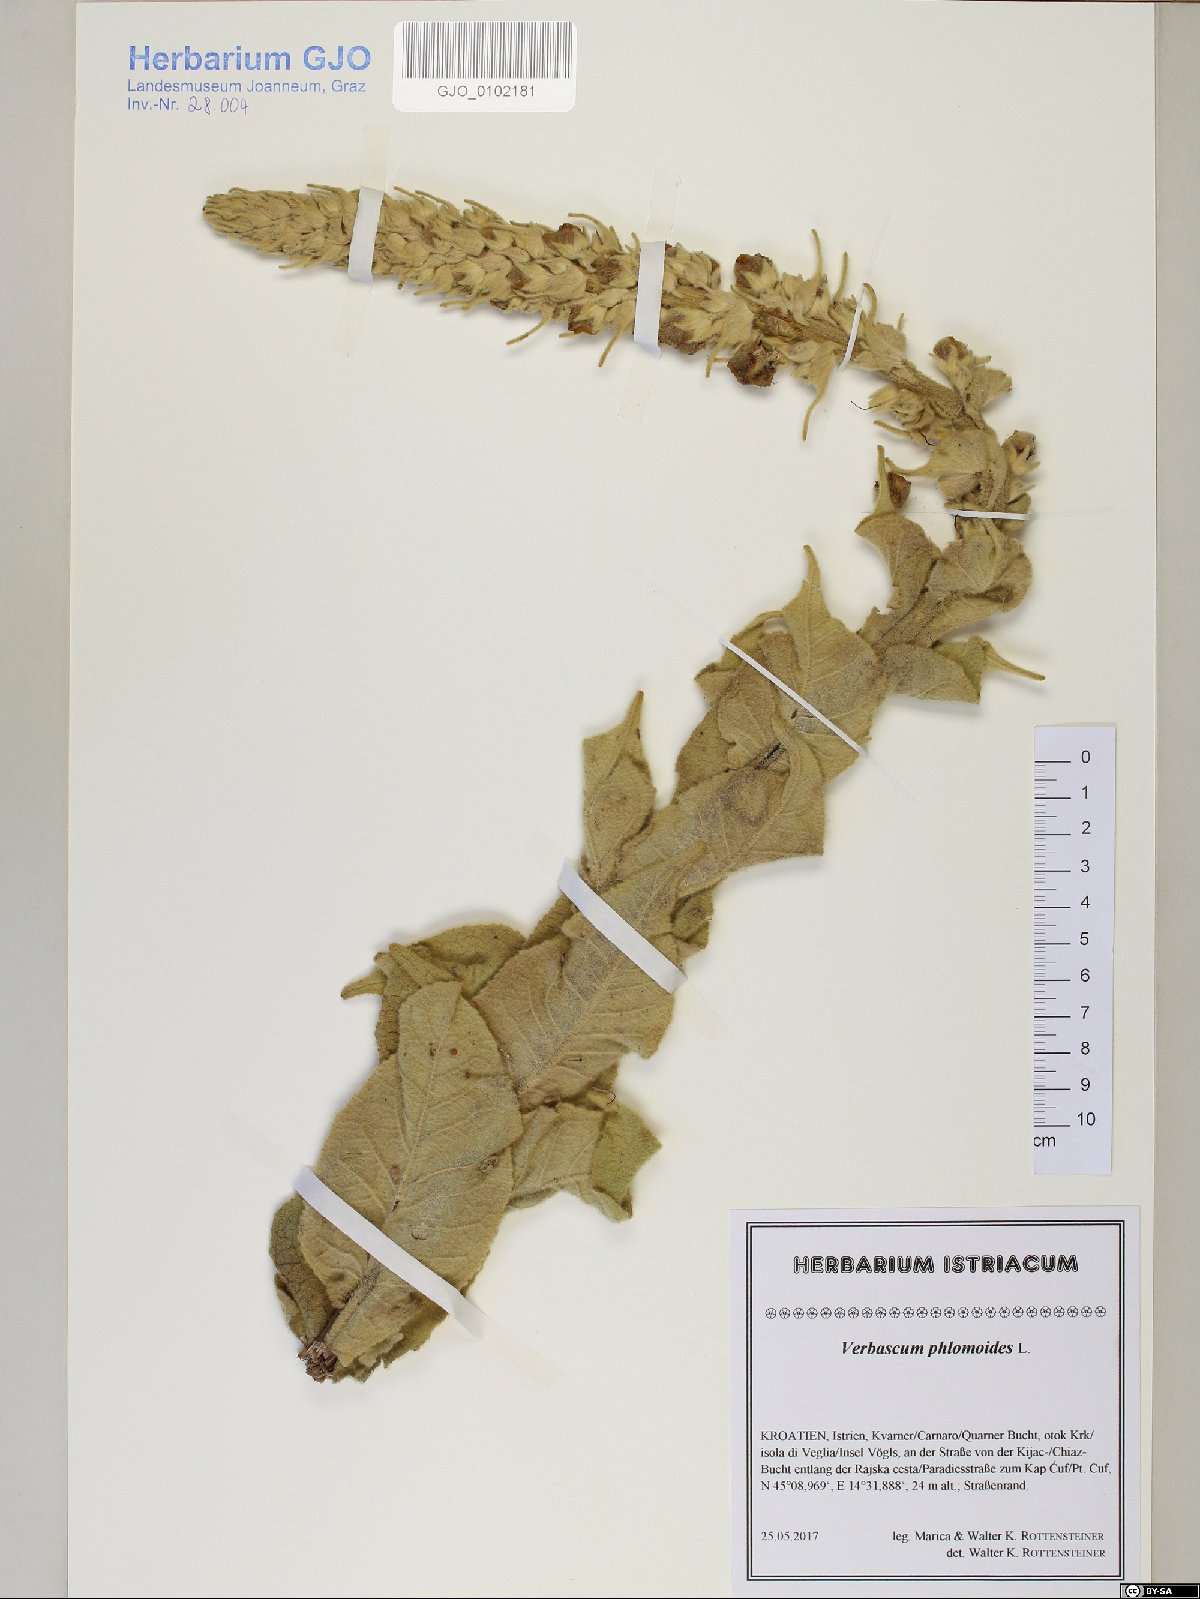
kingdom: Plantae
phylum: Tracheophyta
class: Magnoliopsida
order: Lamiales
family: Scrophulariaceae
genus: Verbascum
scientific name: Verbascum phlomoides
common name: Orange mullein
